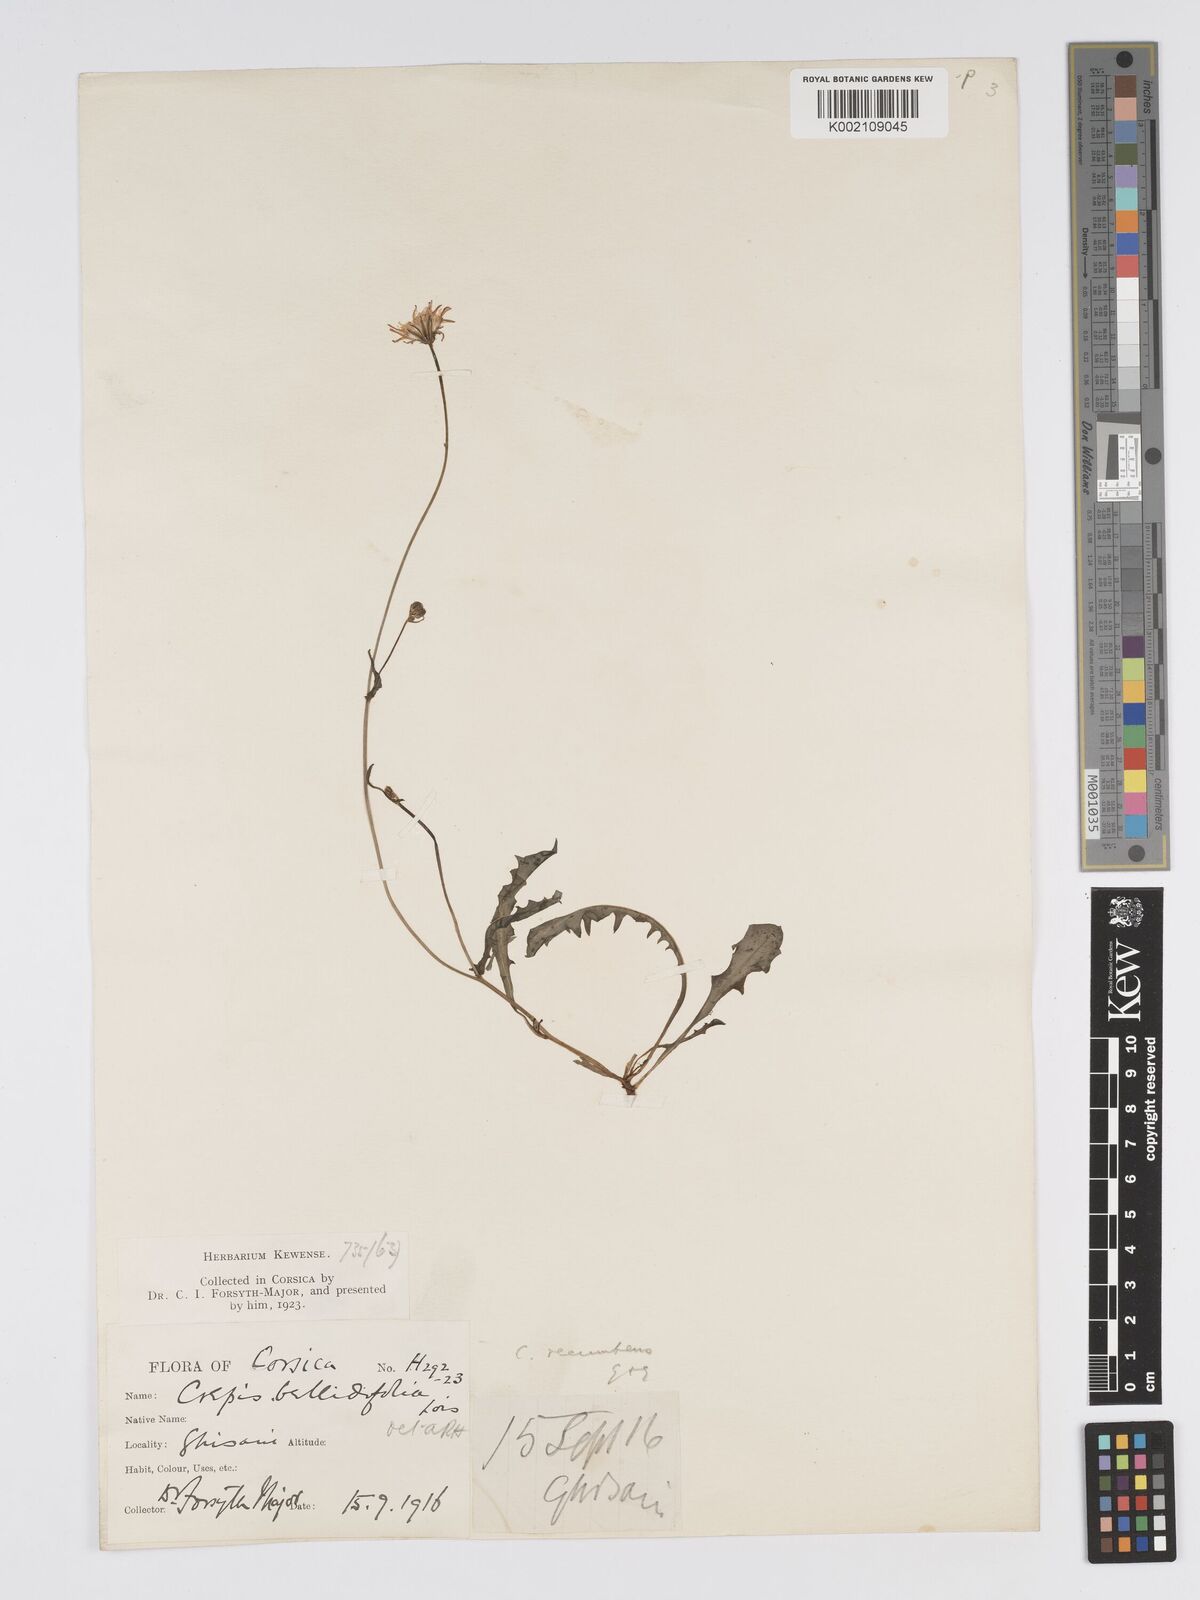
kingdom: Plantae
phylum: Tracheophyta
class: Magnoliopsida
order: Asterales
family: Asteraceae
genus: Crepis
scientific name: Crepis bellidifolia
